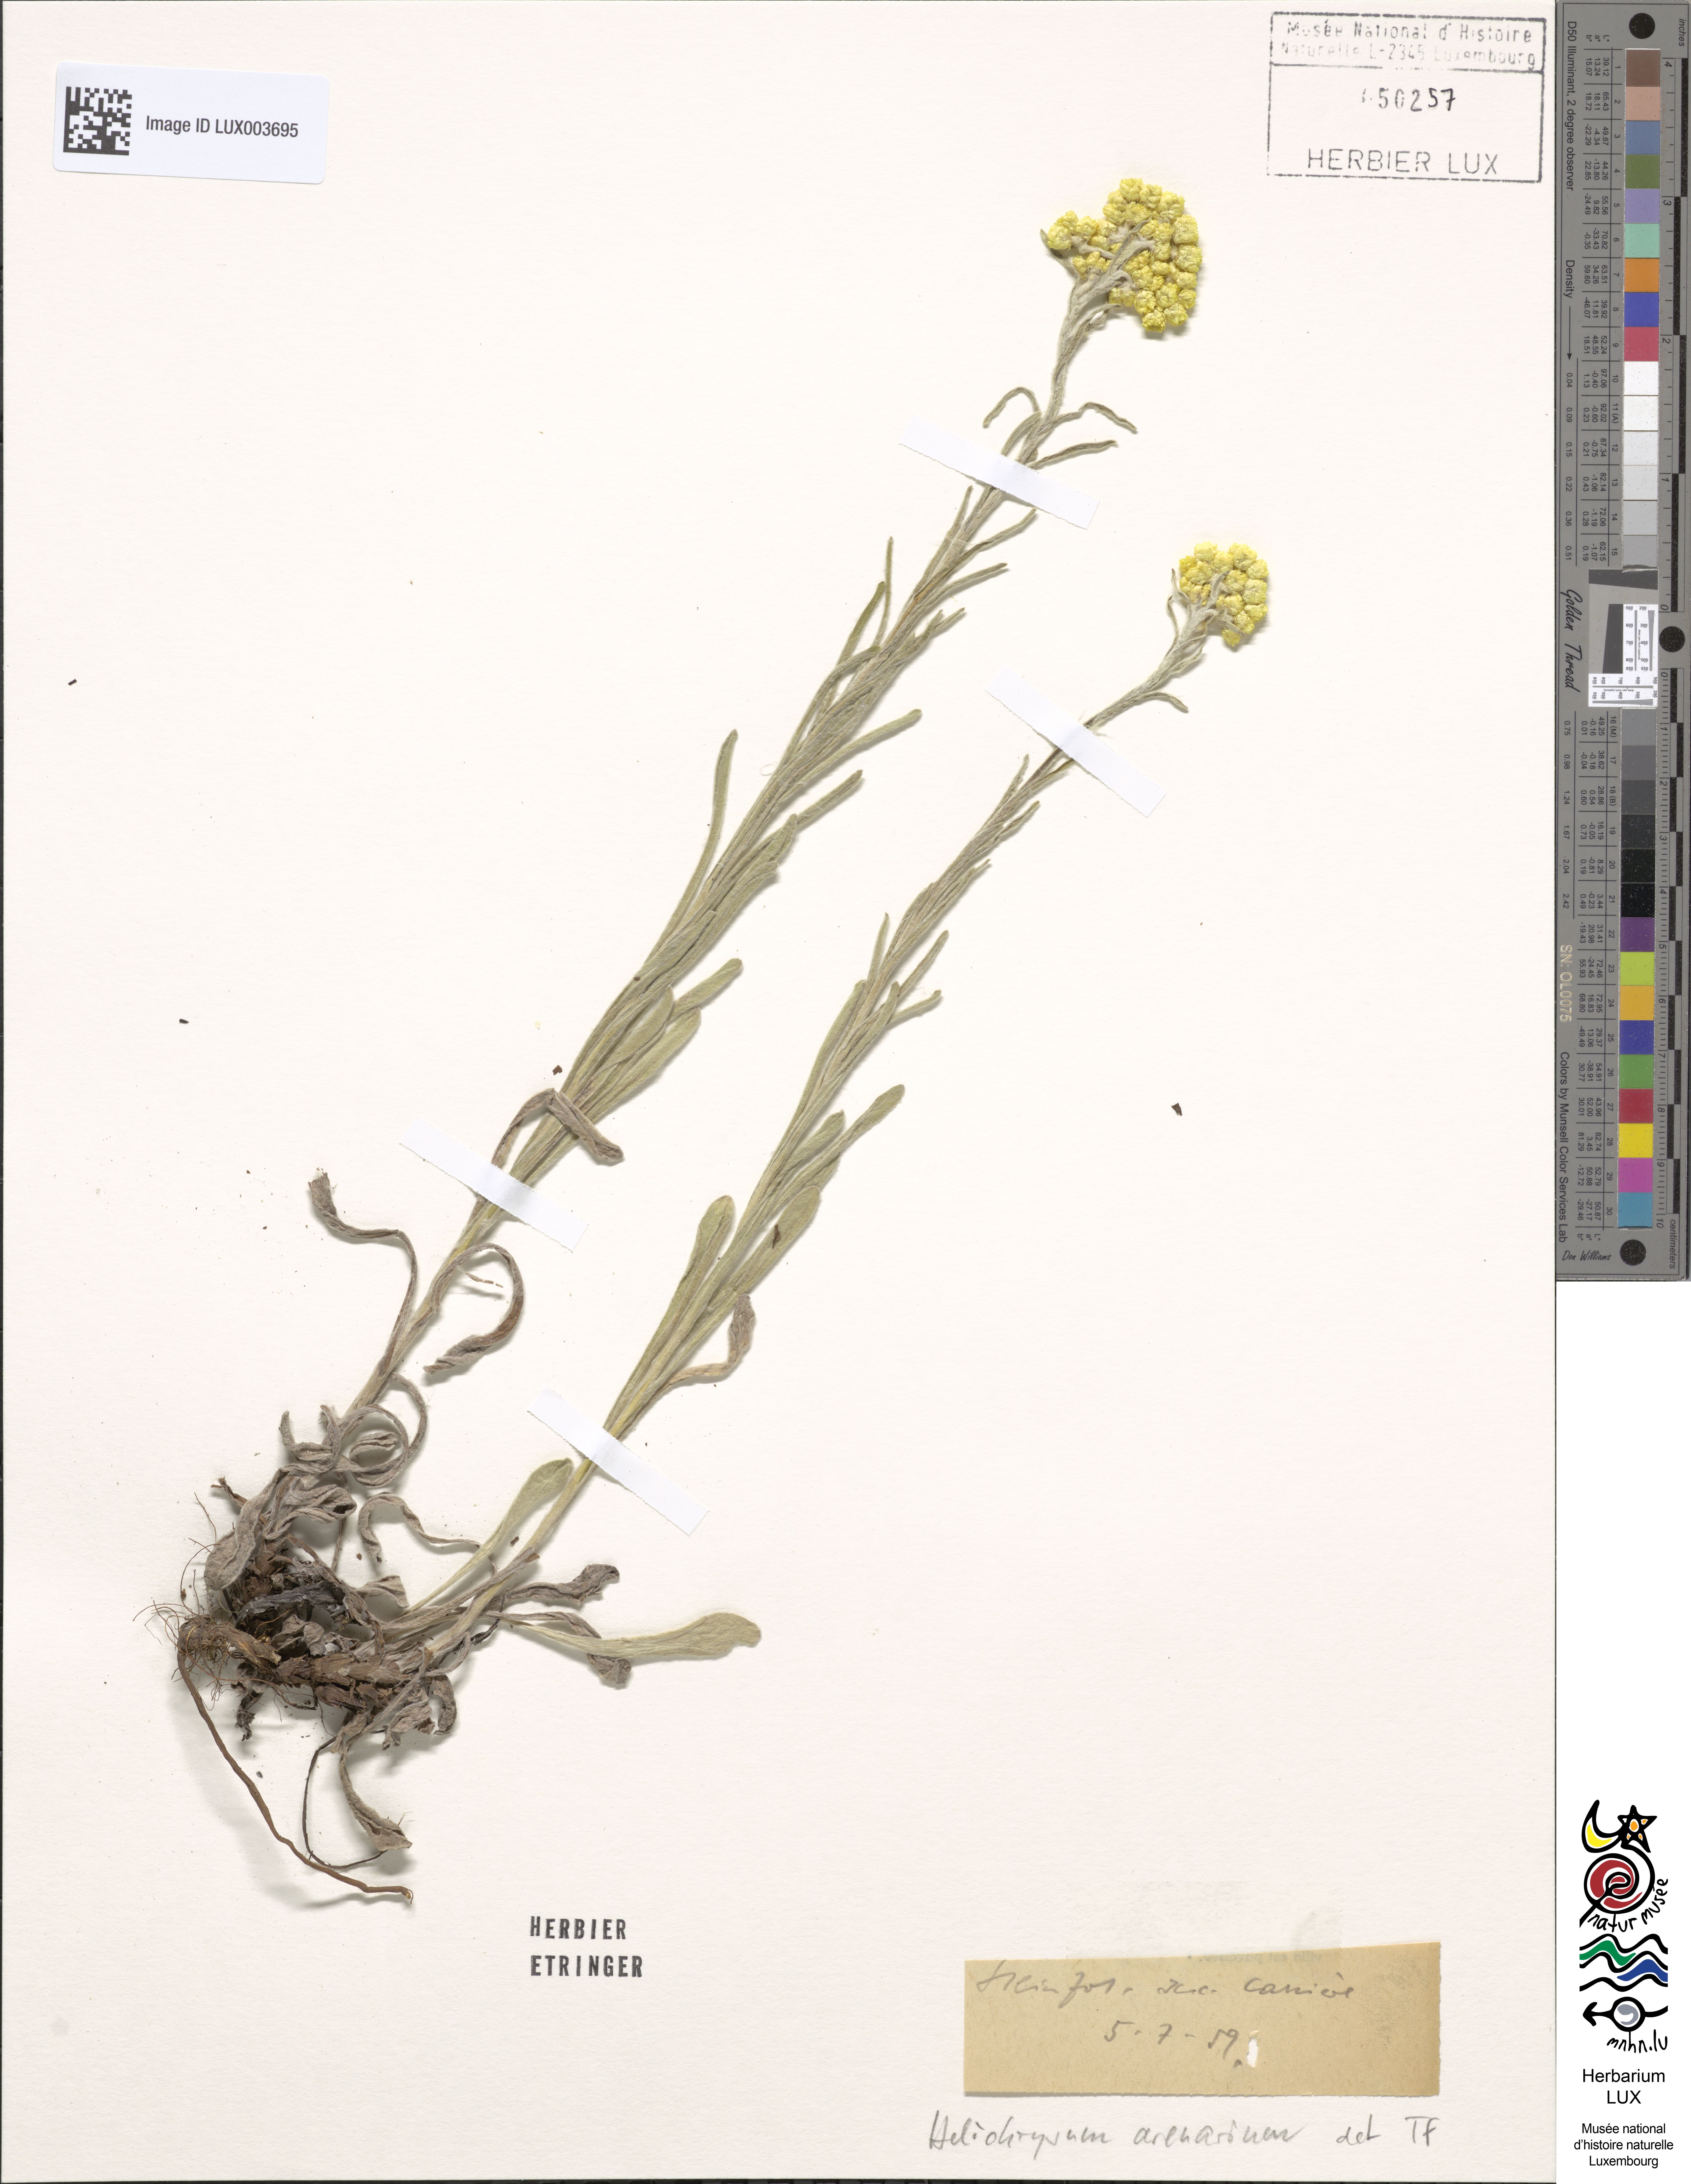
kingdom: Plantae
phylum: Tracheophyta
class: Magnoliopsida
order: Asterales
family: Asteraceae
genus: Helichrysum
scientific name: Helichrysum arenarium
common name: Strawflower
